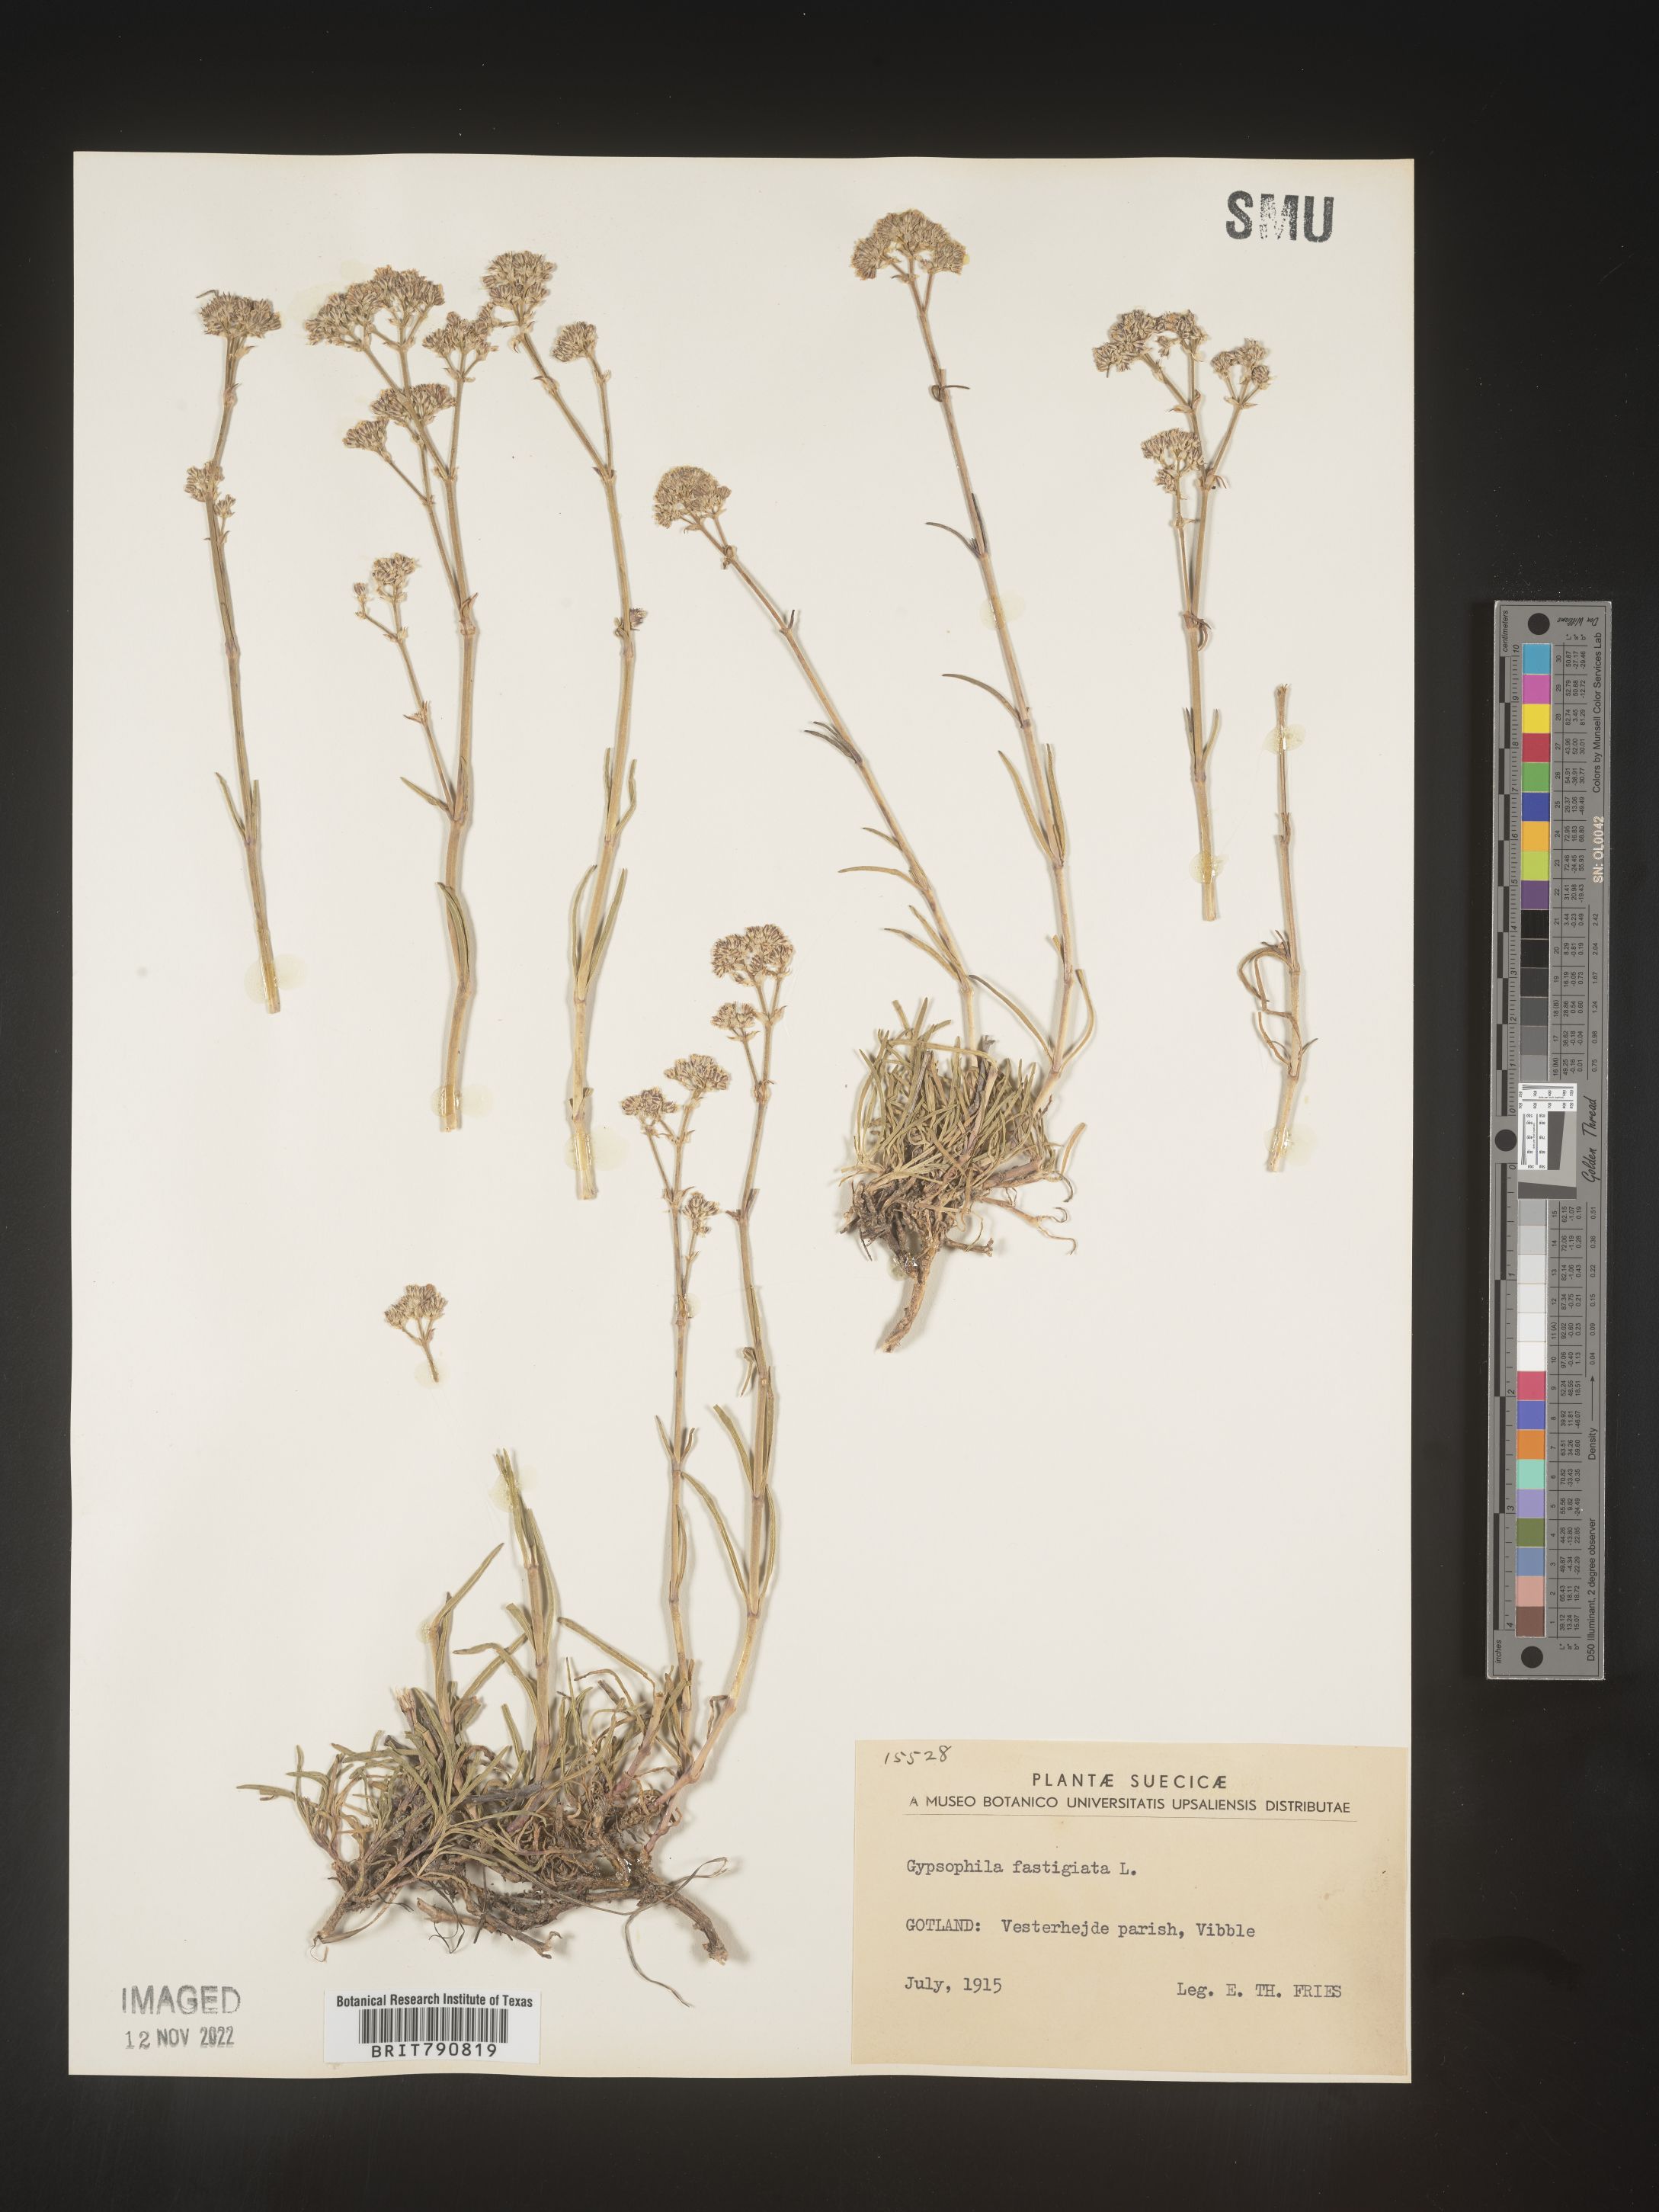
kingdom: Plantae
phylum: Tracheophyta
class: Magnoliopsida
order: Caryophyllales
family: Caryophyllaceae
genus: Gypsophila
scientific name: Gypsophila
